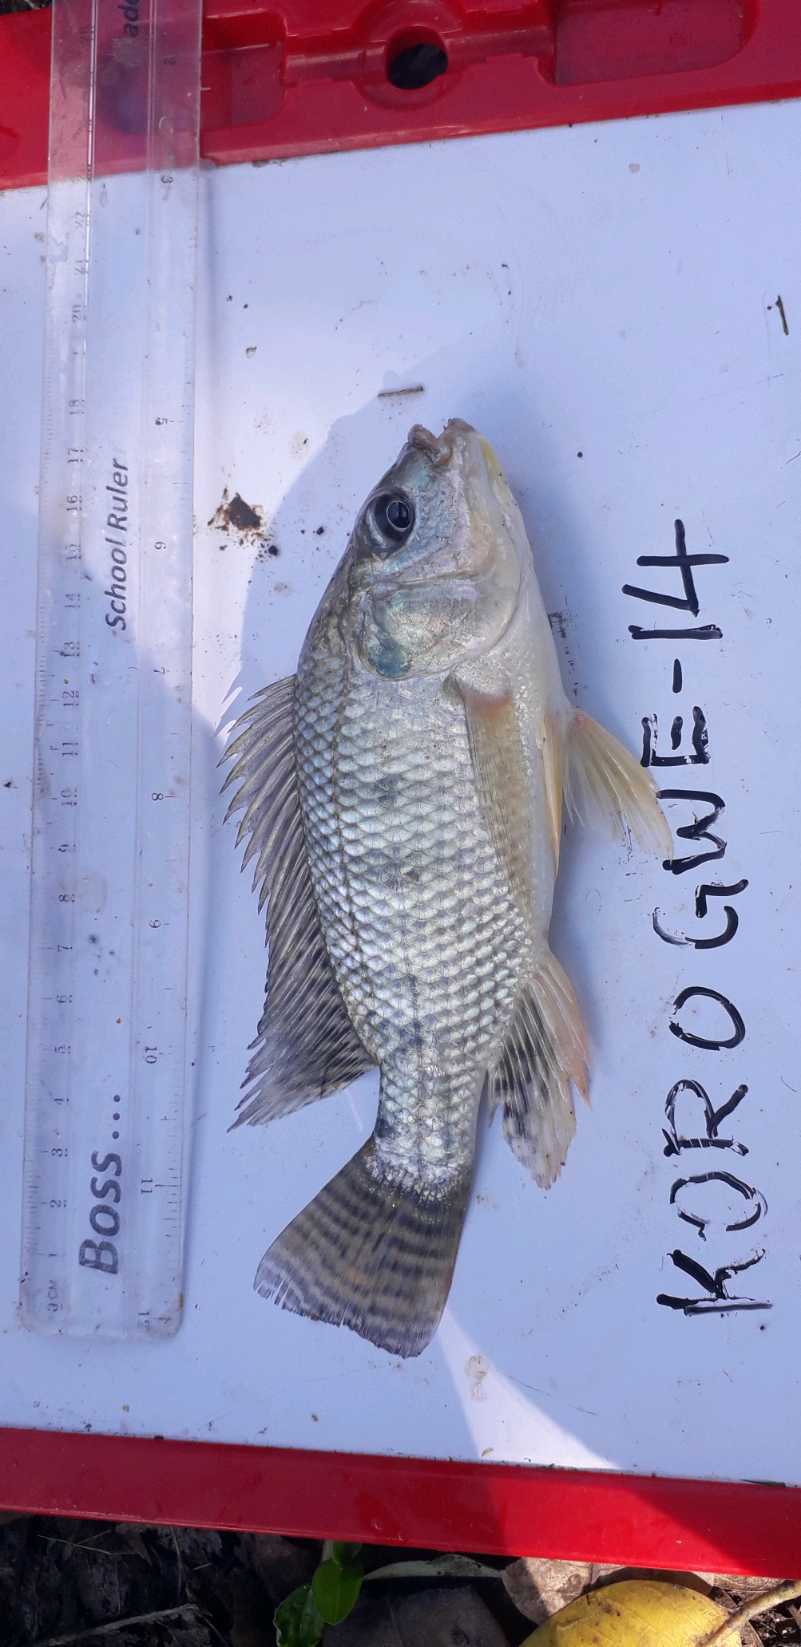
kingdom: Animalia
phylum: Chordata
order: Perciformes
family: Cichlidae
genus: Oreochromis
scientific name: Oreochromis niloticus
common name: Nile tilapia
